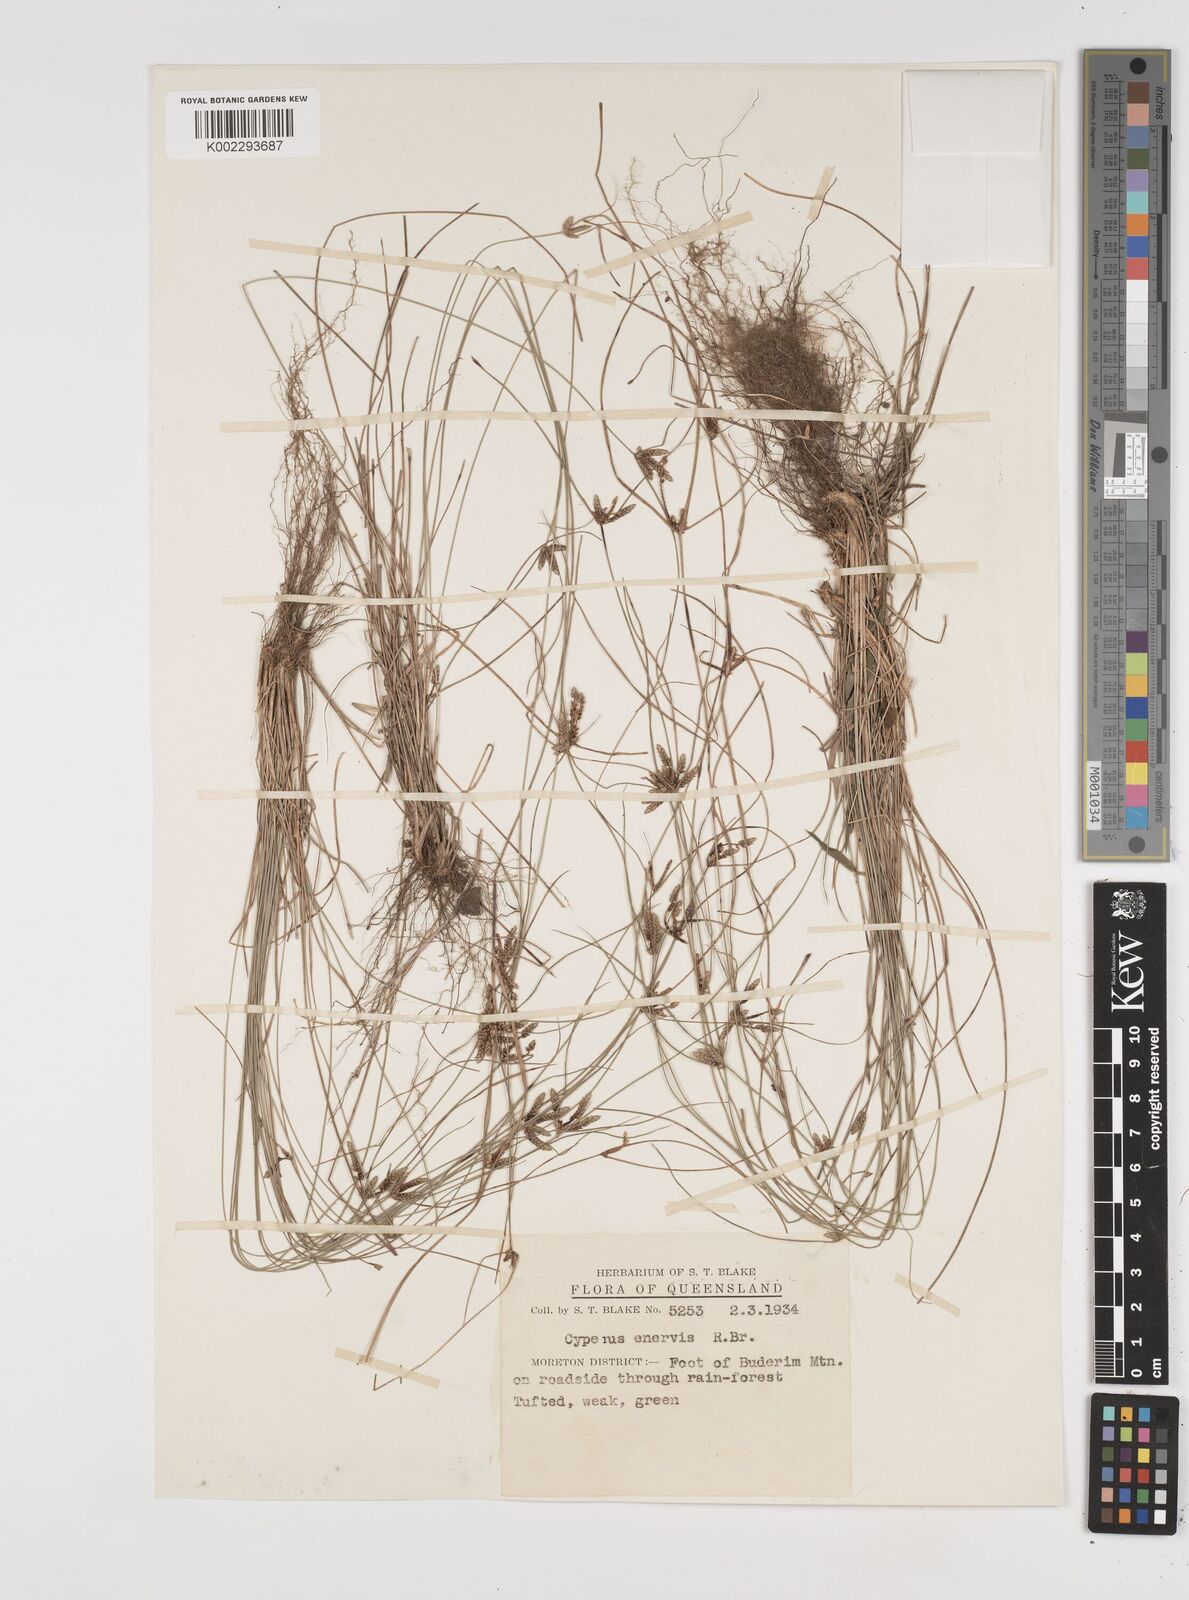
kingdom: Plantae
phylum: Tracheophyta
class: Liliopsida
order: Poales
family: Cyperaceae
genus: Cyperus
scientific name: Cyperus enervis
